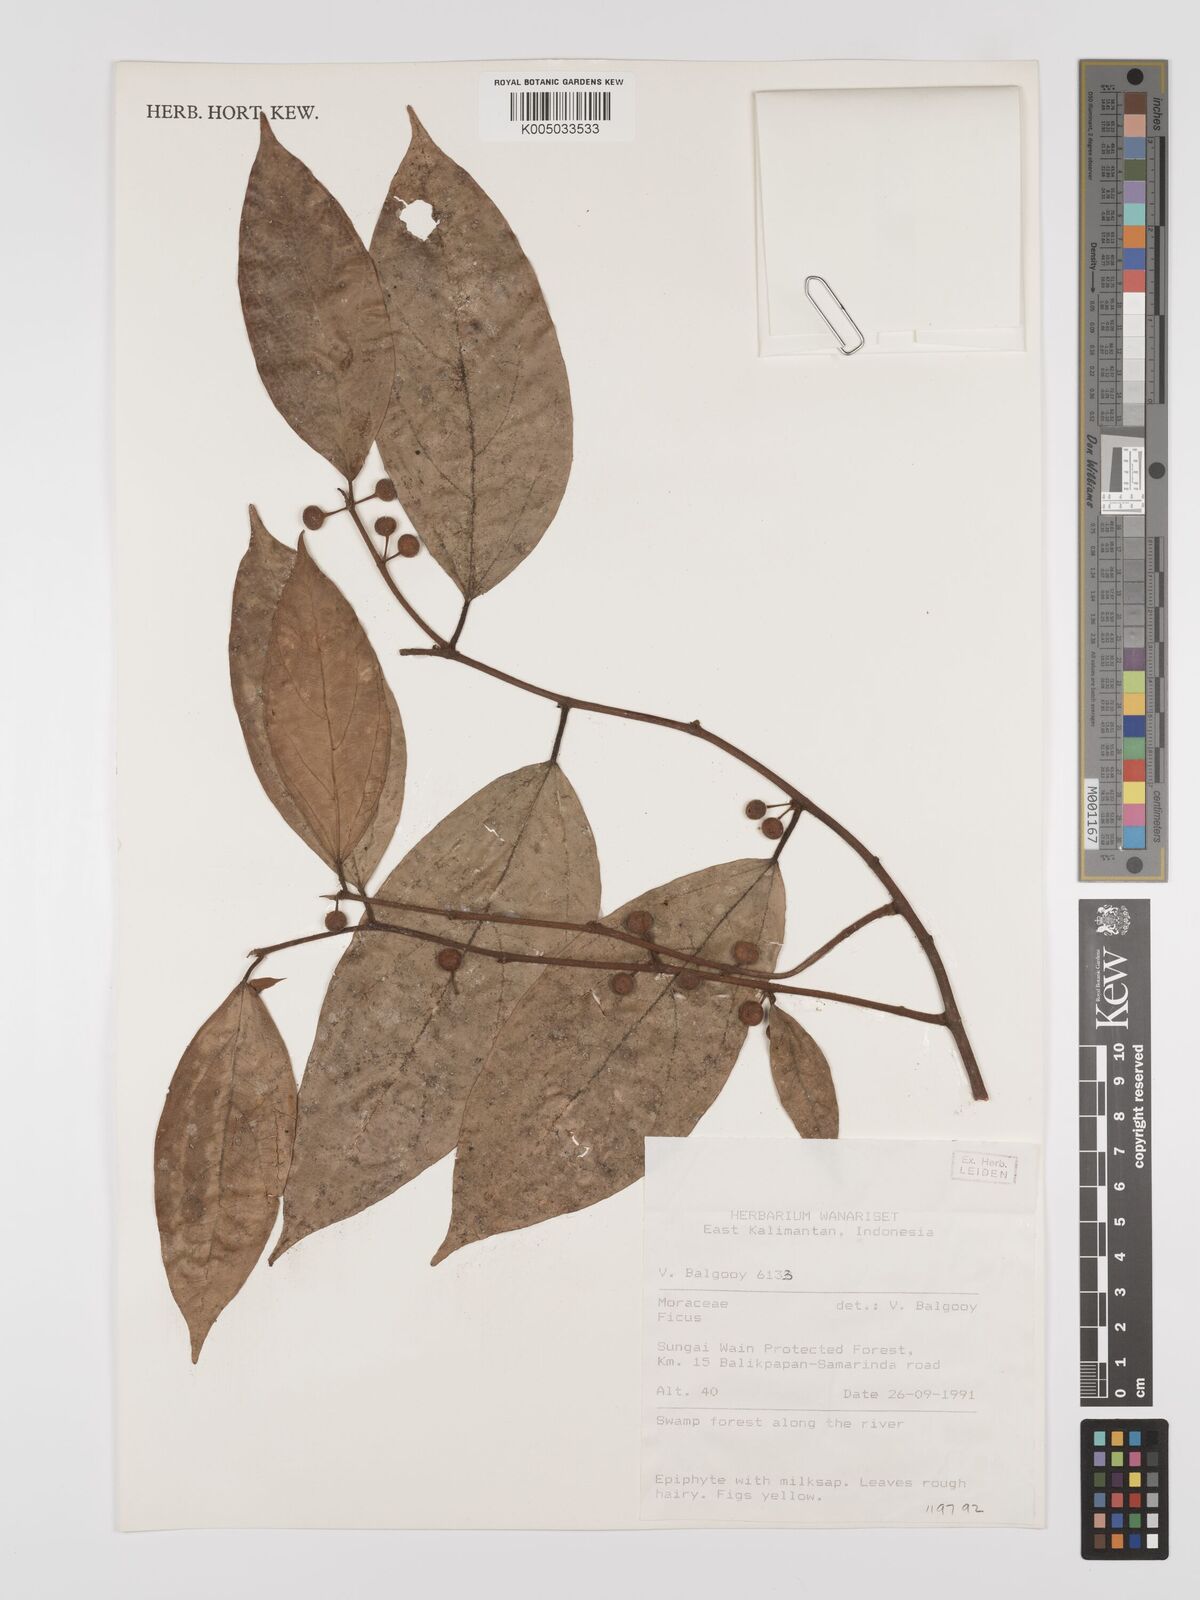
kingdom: Plantae
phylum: Tracheophyta
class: Magnoliopsida
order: Rosales
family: Moraceae
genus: Ficus
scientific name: Ficus
